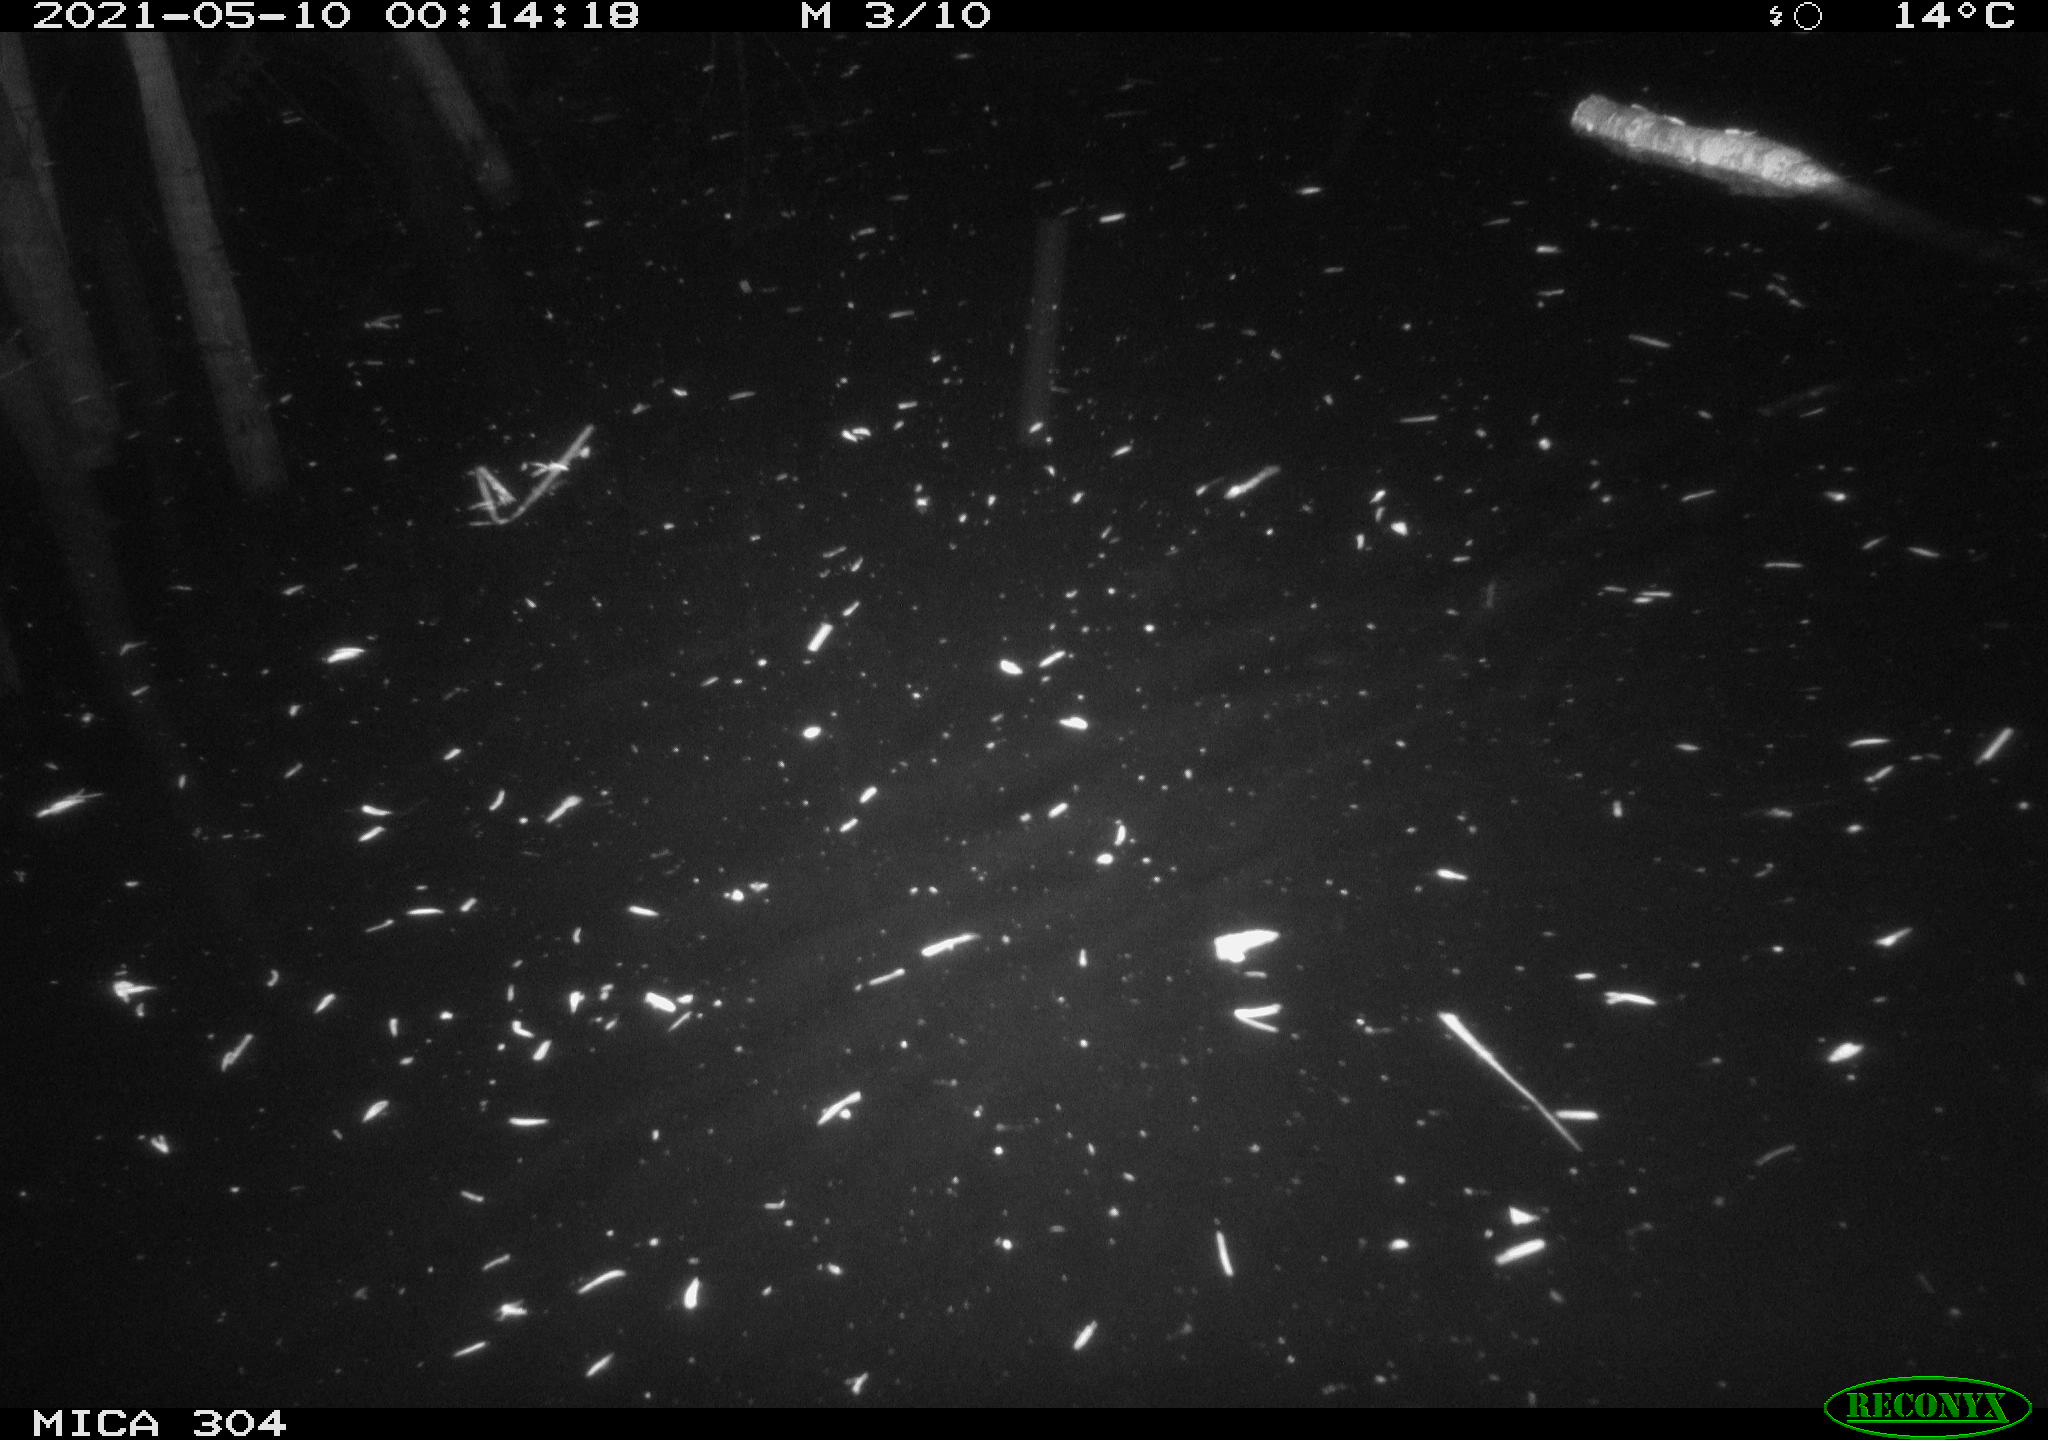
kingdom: Animalia
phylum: Chordata
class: Mammalia
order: Rodentia
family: Cricetidae
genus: Ondatra
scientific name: Ondatra zibethicus
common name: Muskrat
